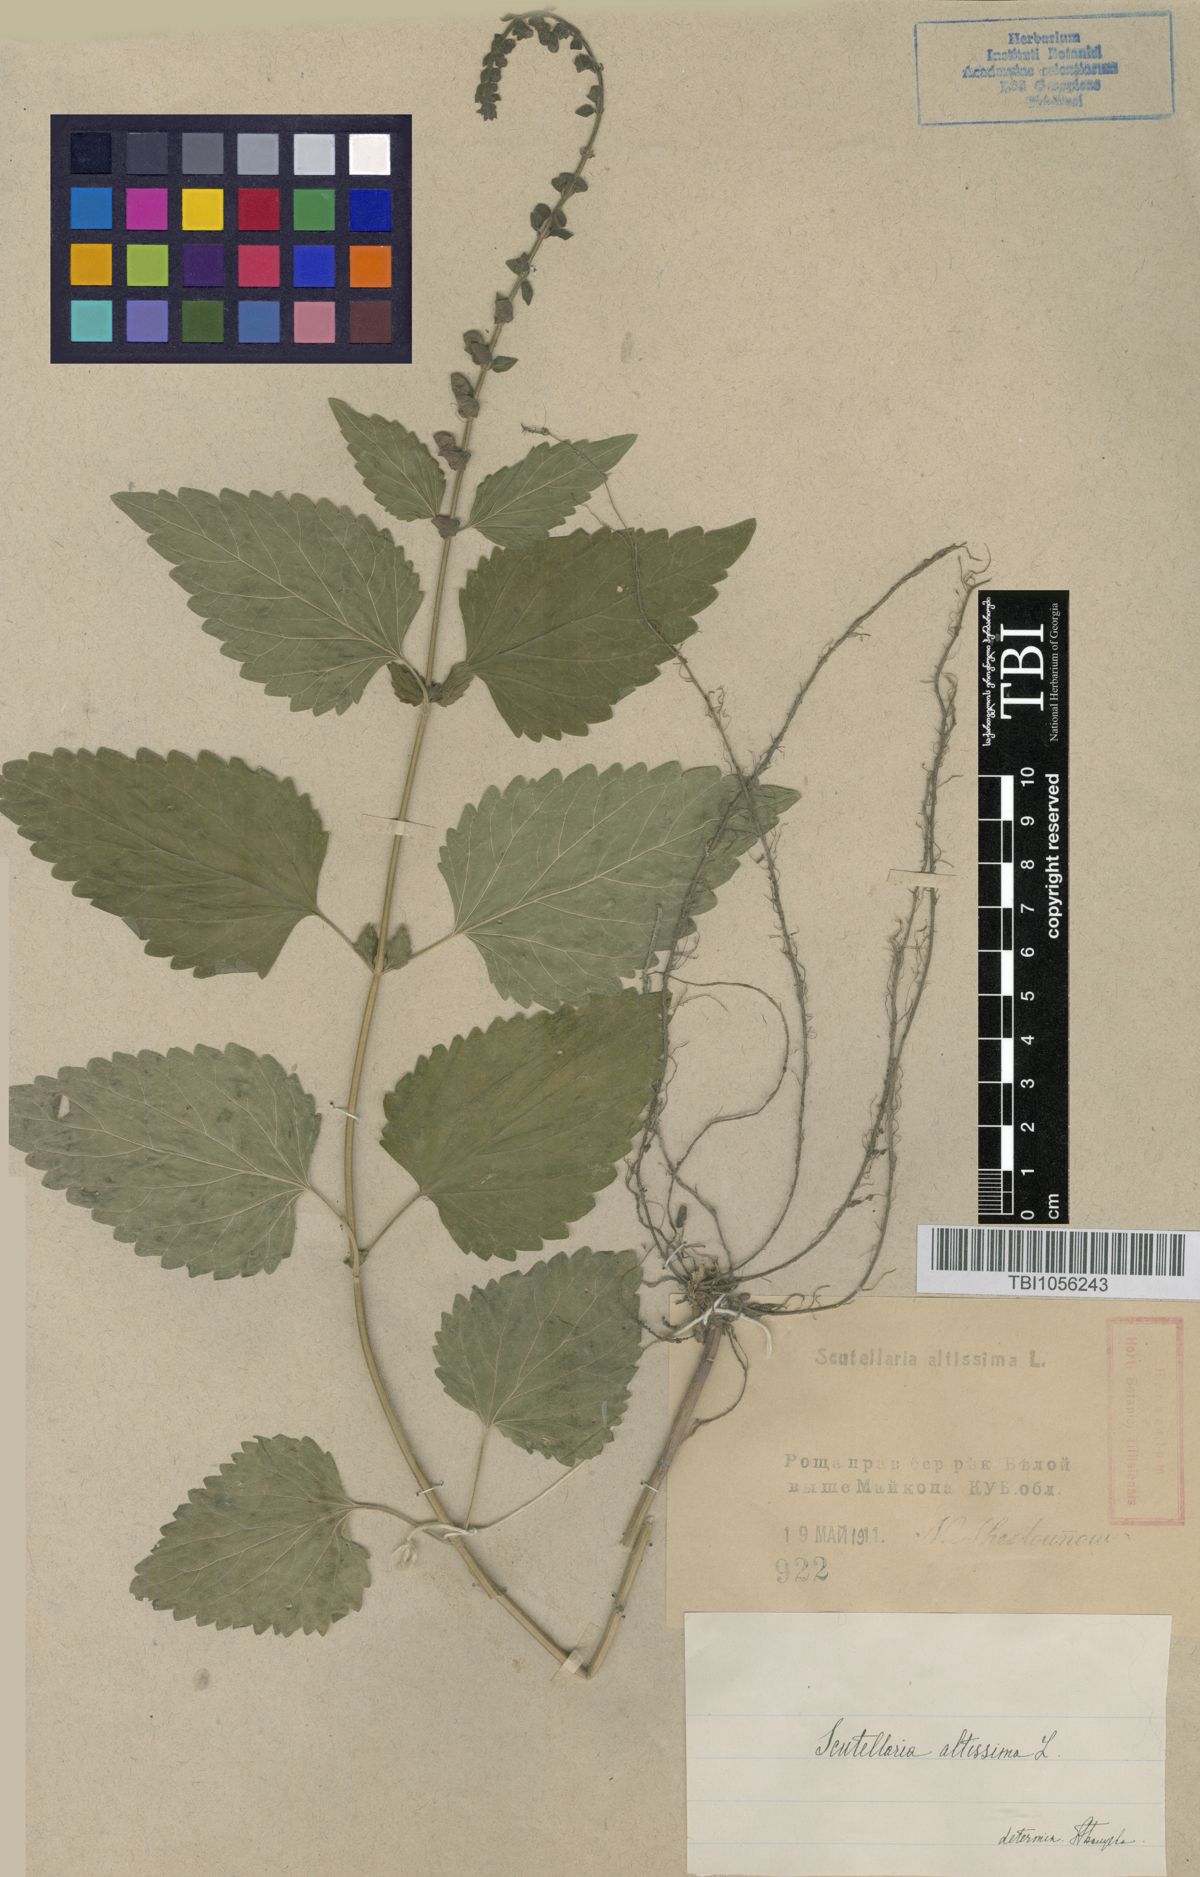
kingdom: Plantae
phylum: Tracheophyta
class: Magnoliopsida
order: Lamiales
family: Lamiaceae
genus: Scutellaria
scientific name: Scutellaria altissima
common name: Somerset skullcap
